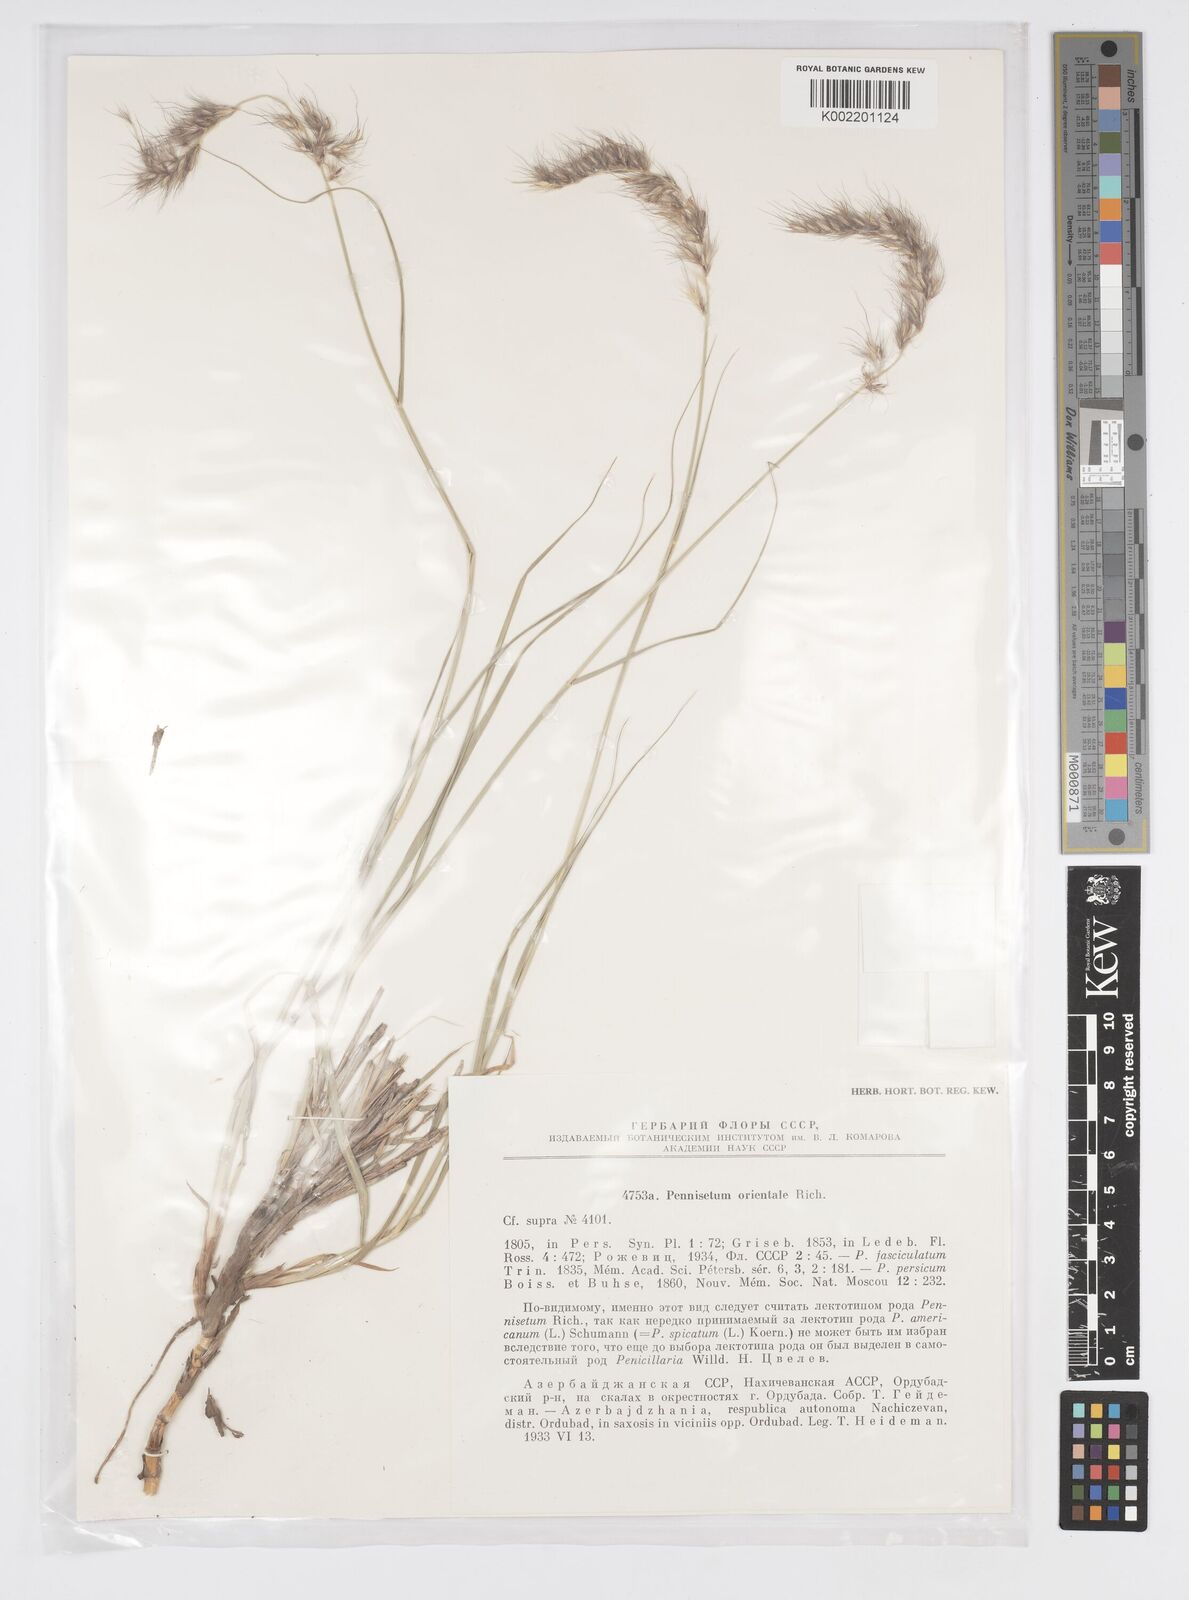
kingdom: Plantae
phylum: Tracheophyta
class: Liliopsida
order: Poales
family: Poaceae
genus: Cenchrus
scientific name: Cenchrus orientalis
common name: Oriental fountain grass
